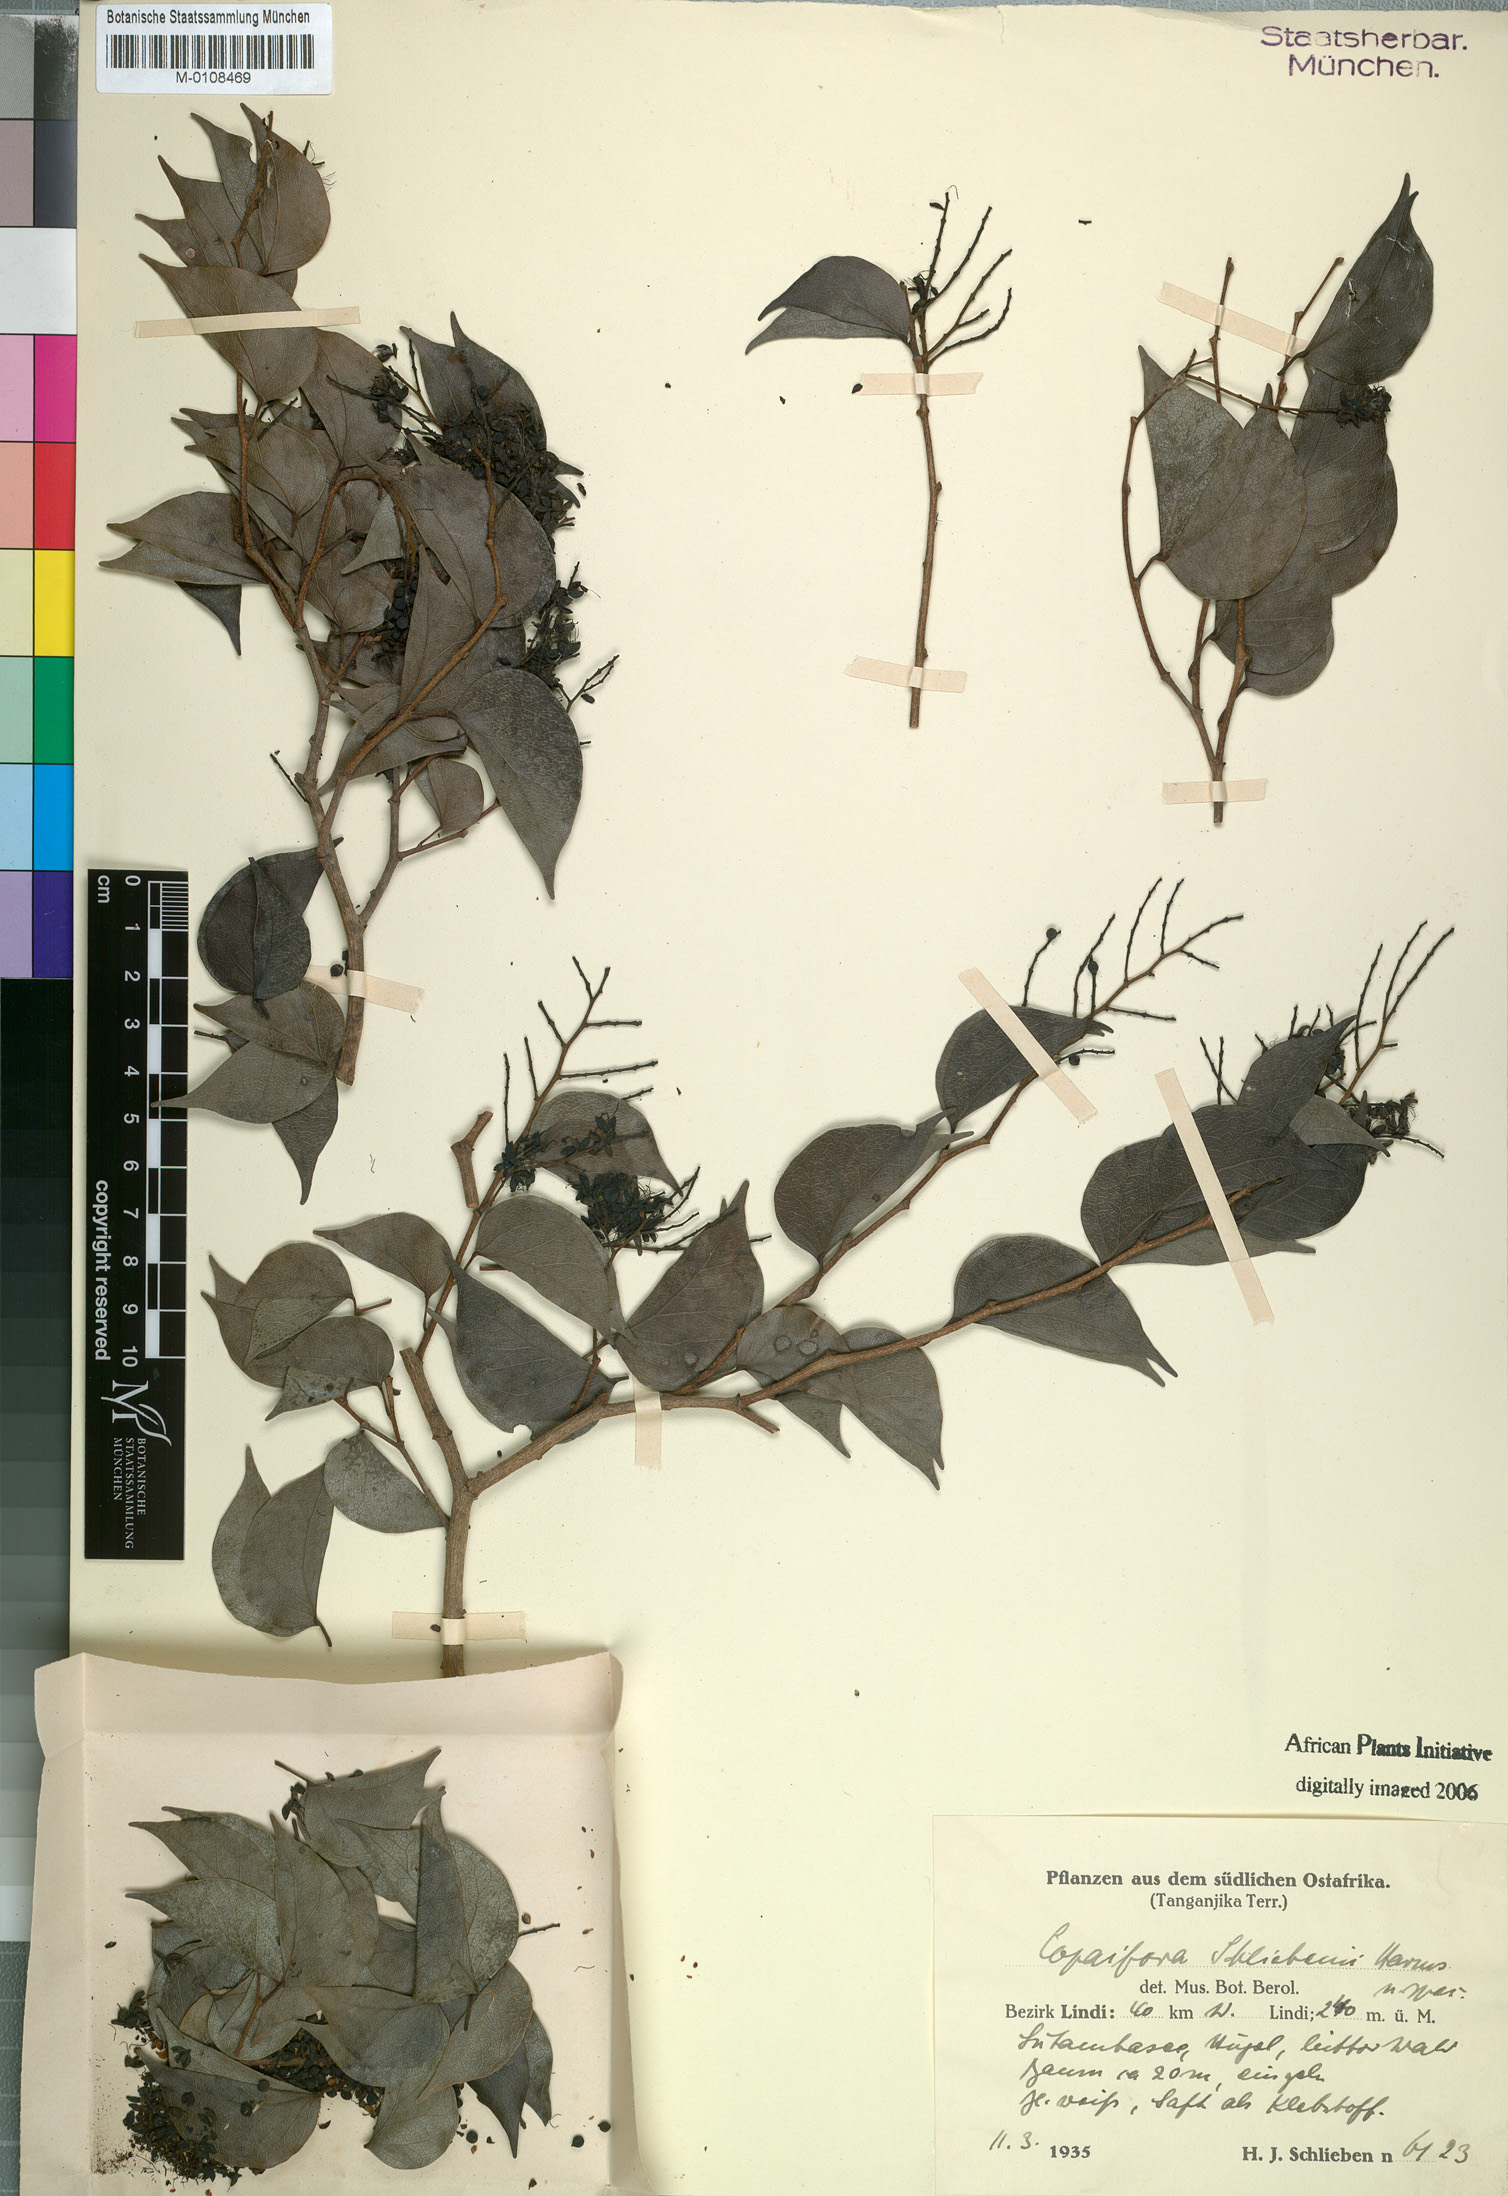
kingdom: Plantae
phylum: Tracheophyta
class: Magnoliopsida
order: Fabales
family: Fabaceae
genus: Guibourtia
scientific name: Guibourtia schliebenii
